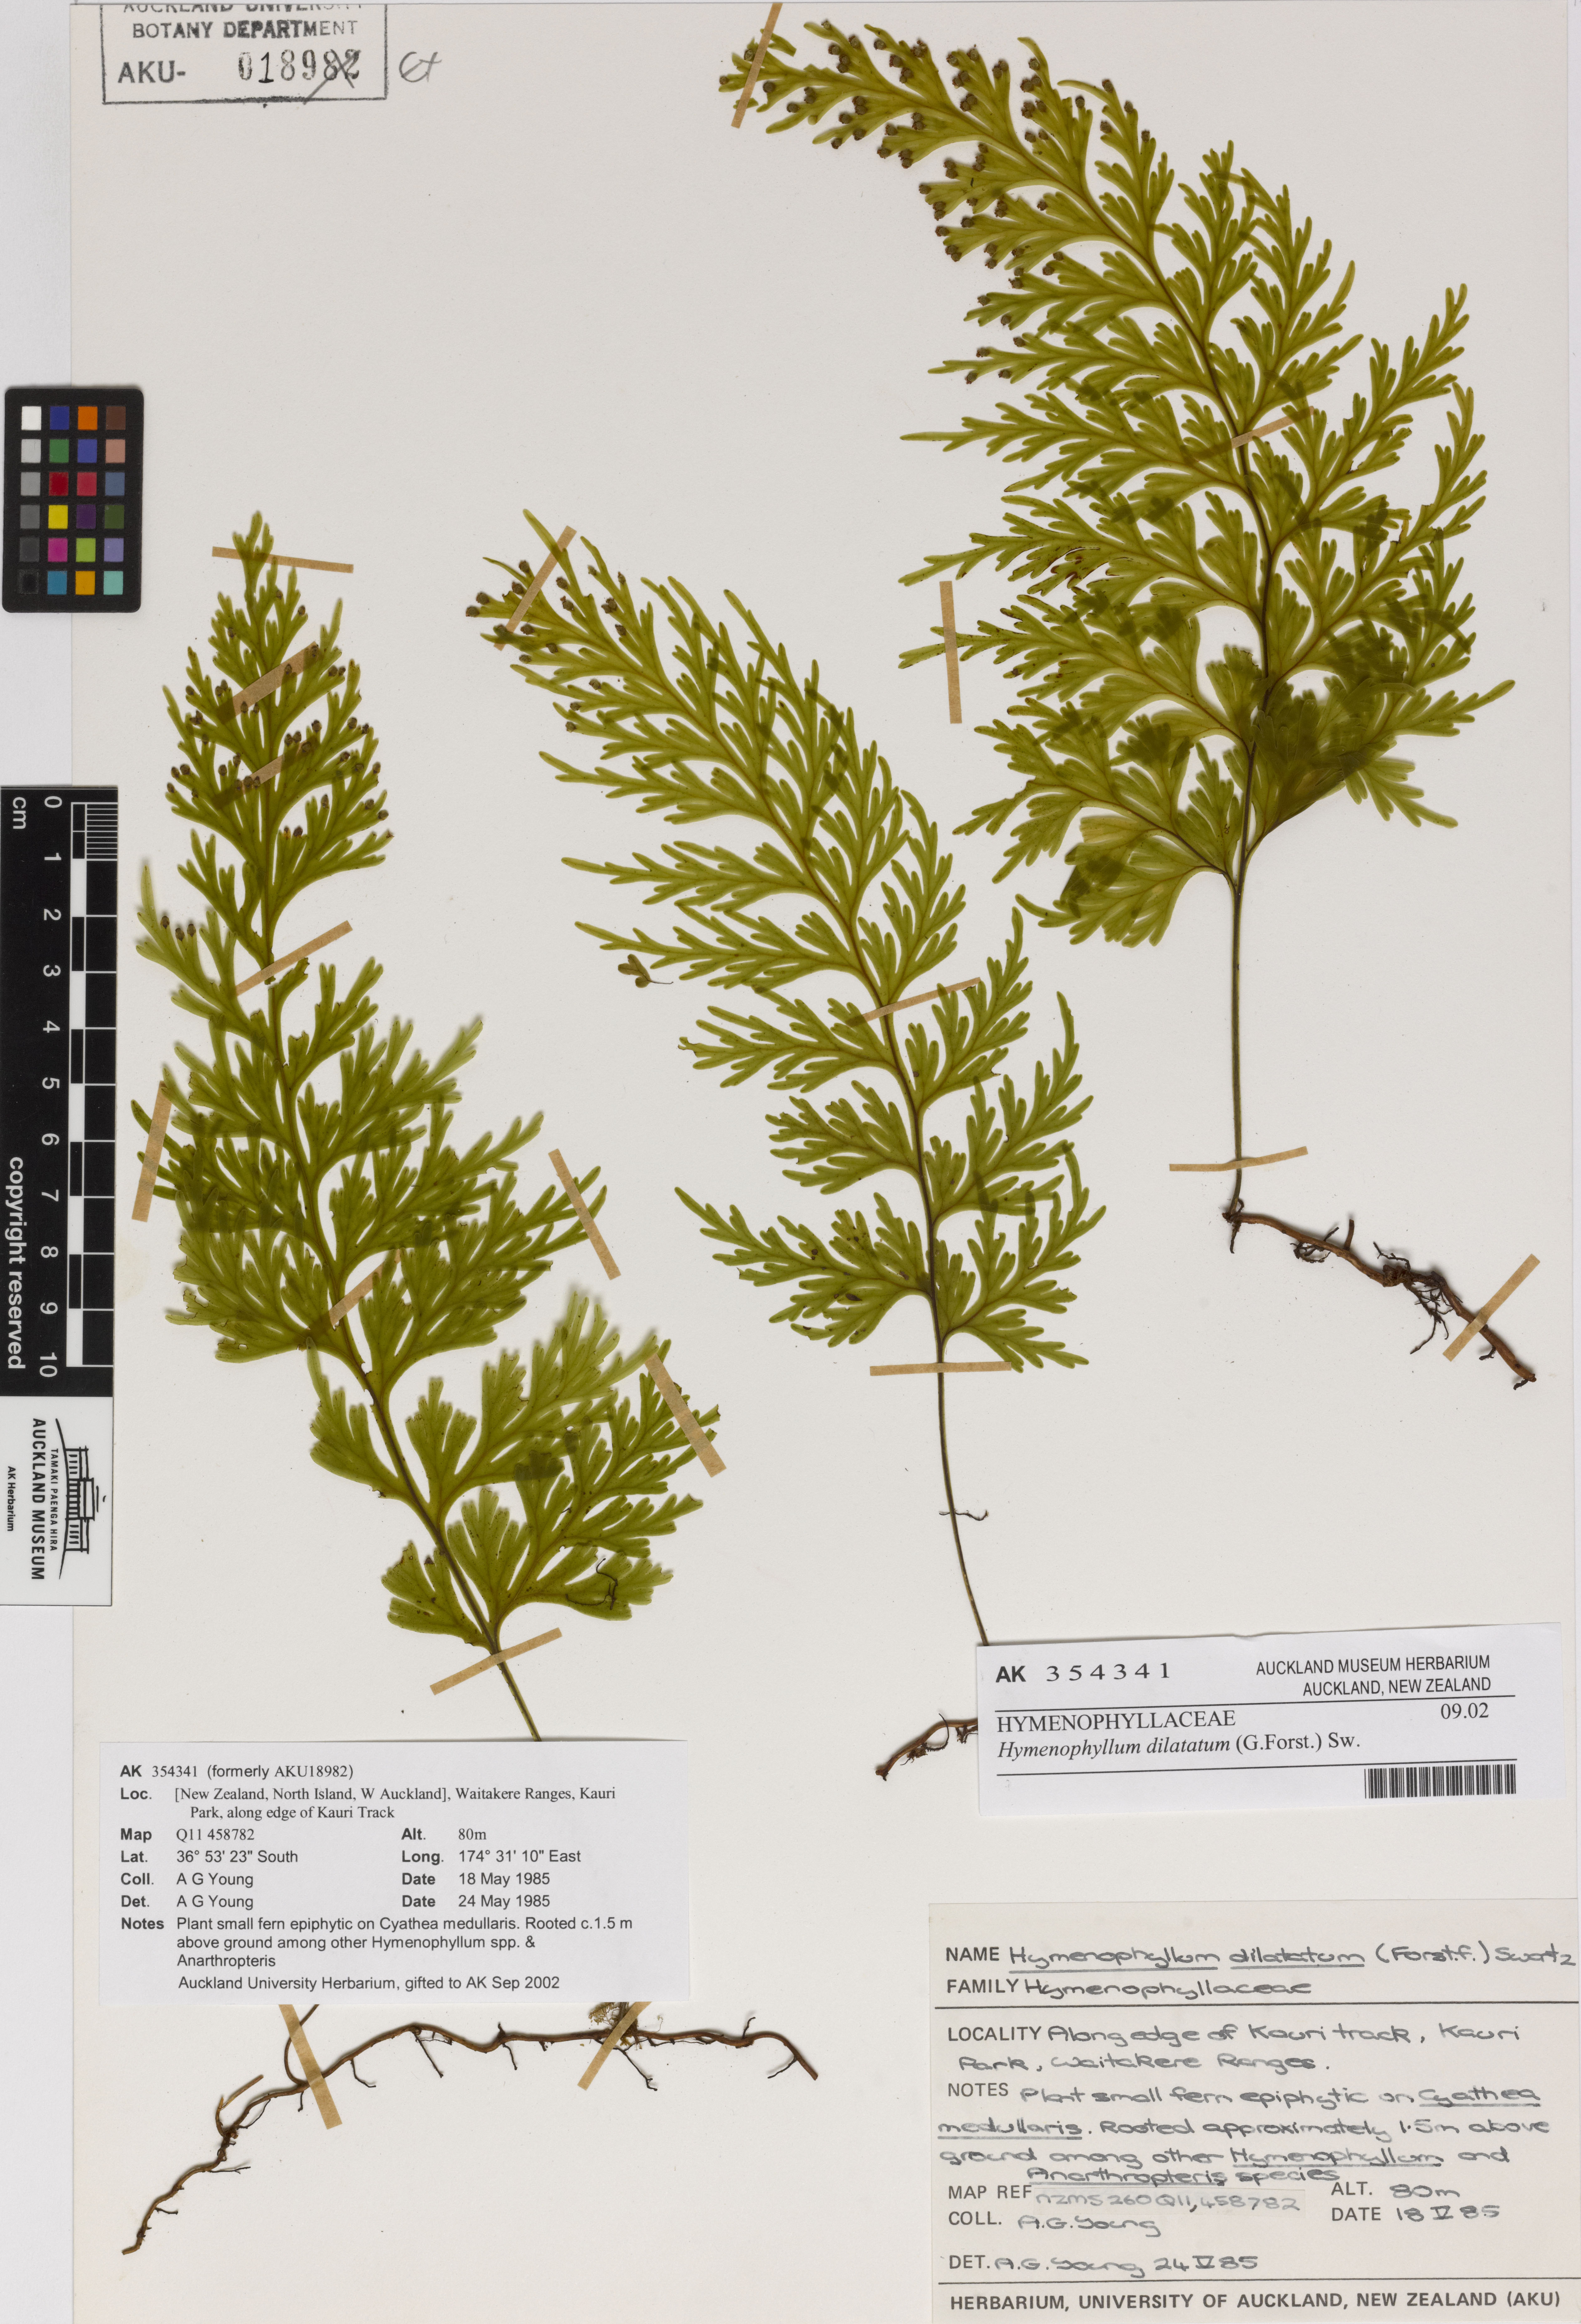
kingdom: Plantae
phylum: Tracheophyta
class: Polypodiopsida
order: Hymenophyllales
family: Hymenophyllaceae
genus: Hymenophyllum
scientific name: Hymenophyllum dilatatum
